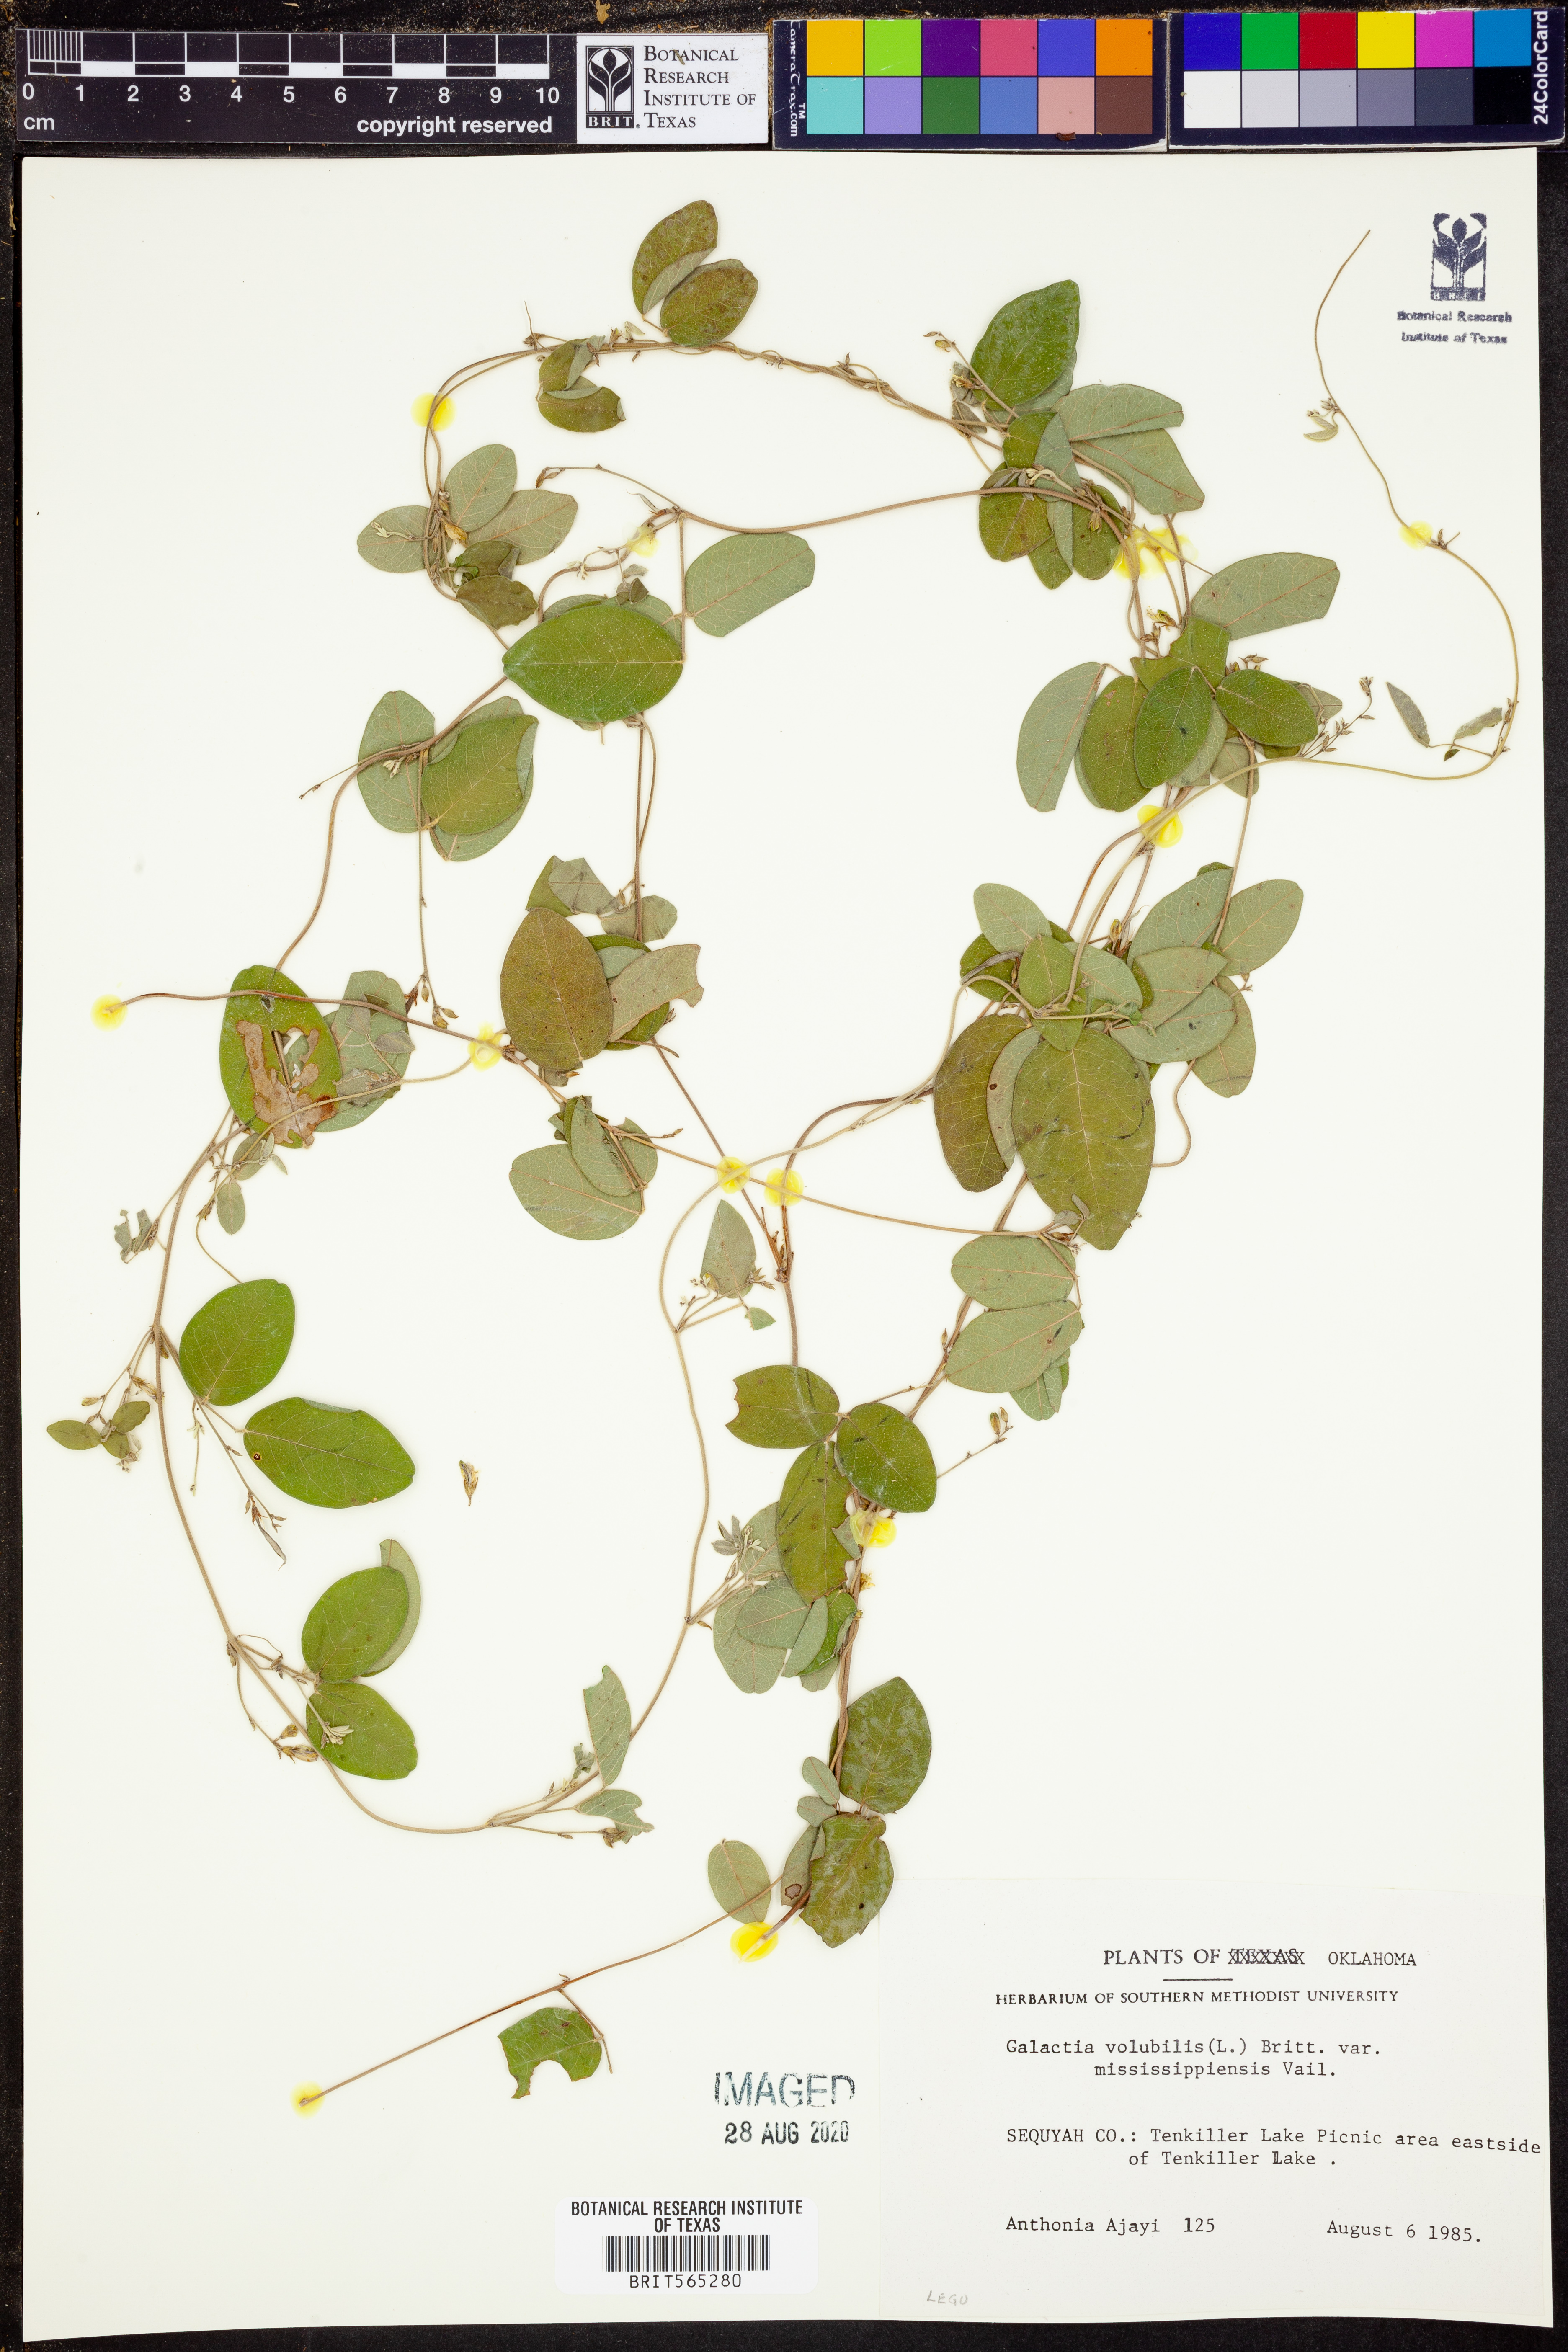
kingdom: Plantae
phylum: Tracheophyta
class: Magnoliopsida
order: Fabales
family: Fabaceae
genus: Galactia
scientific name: Galactia volubilis
